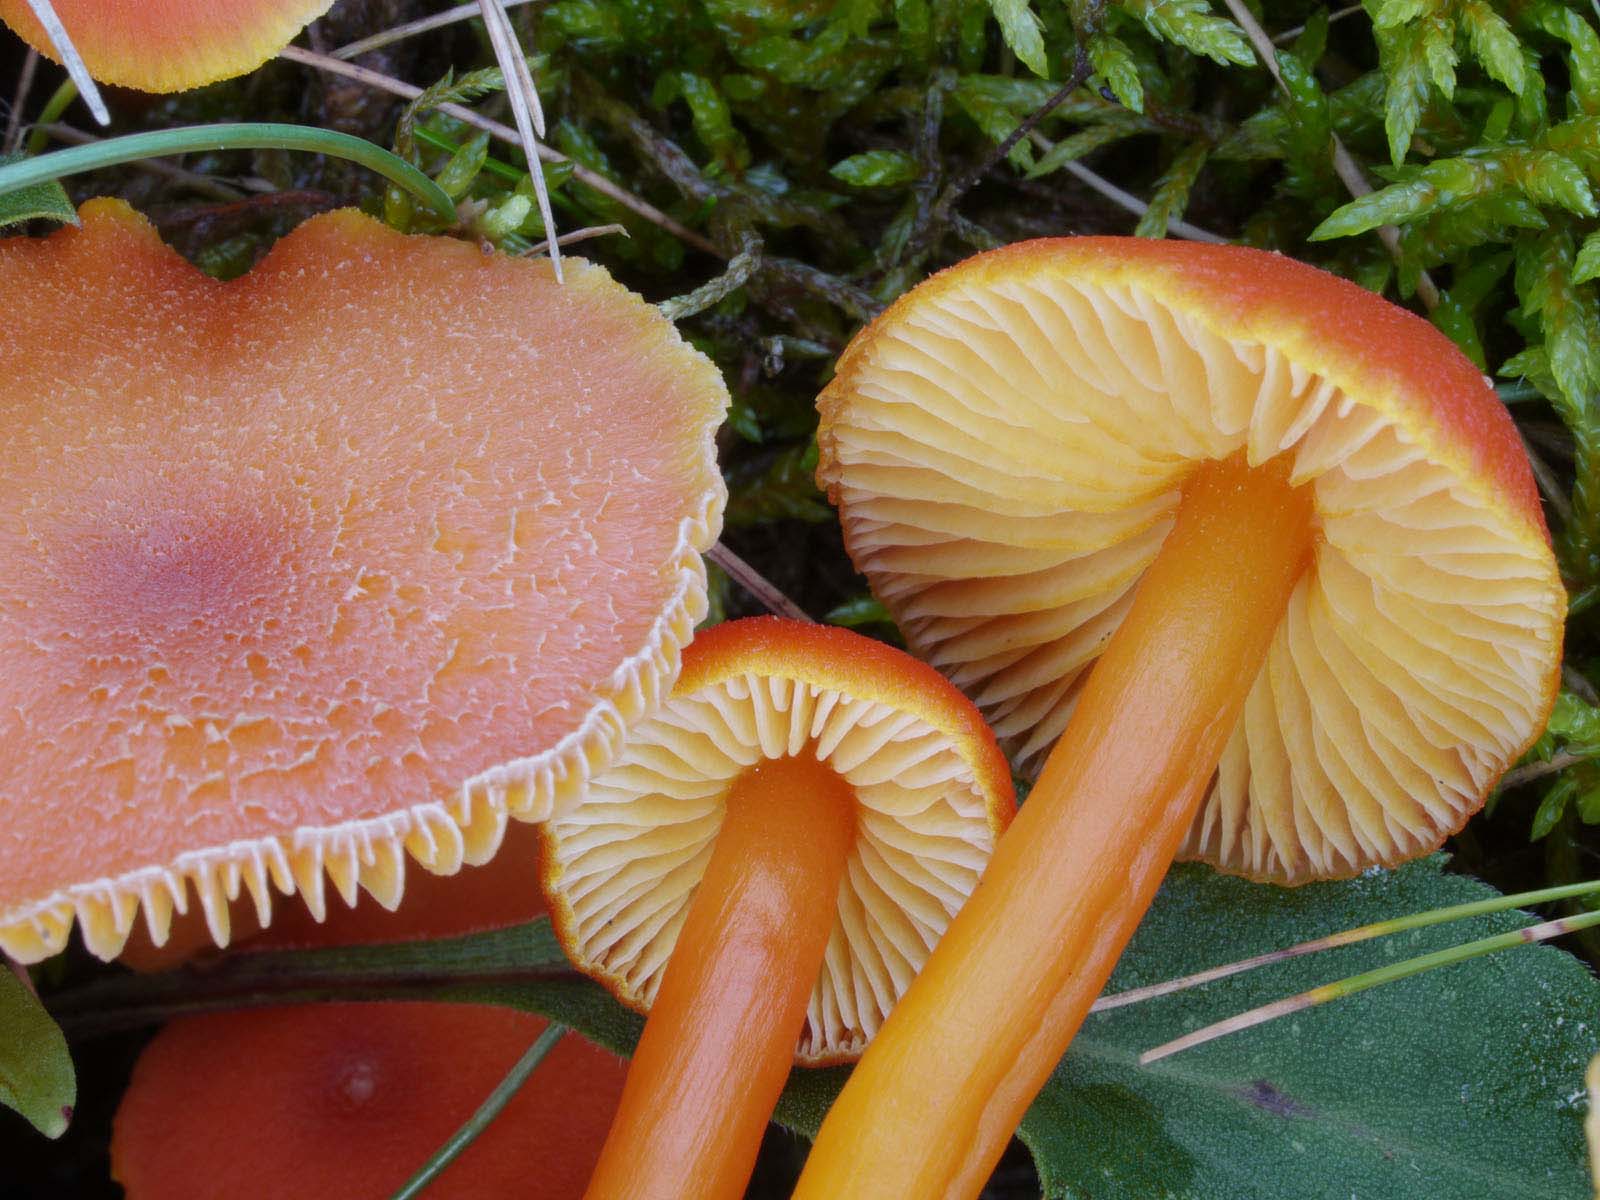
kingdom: Fungi
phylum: Basidiomycota
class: Agaricomycetes
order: Agaricales
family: Hygrophoraceae
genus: Hygrocybe
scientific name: Hygrocybe miniata
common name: mønje-vokshat
